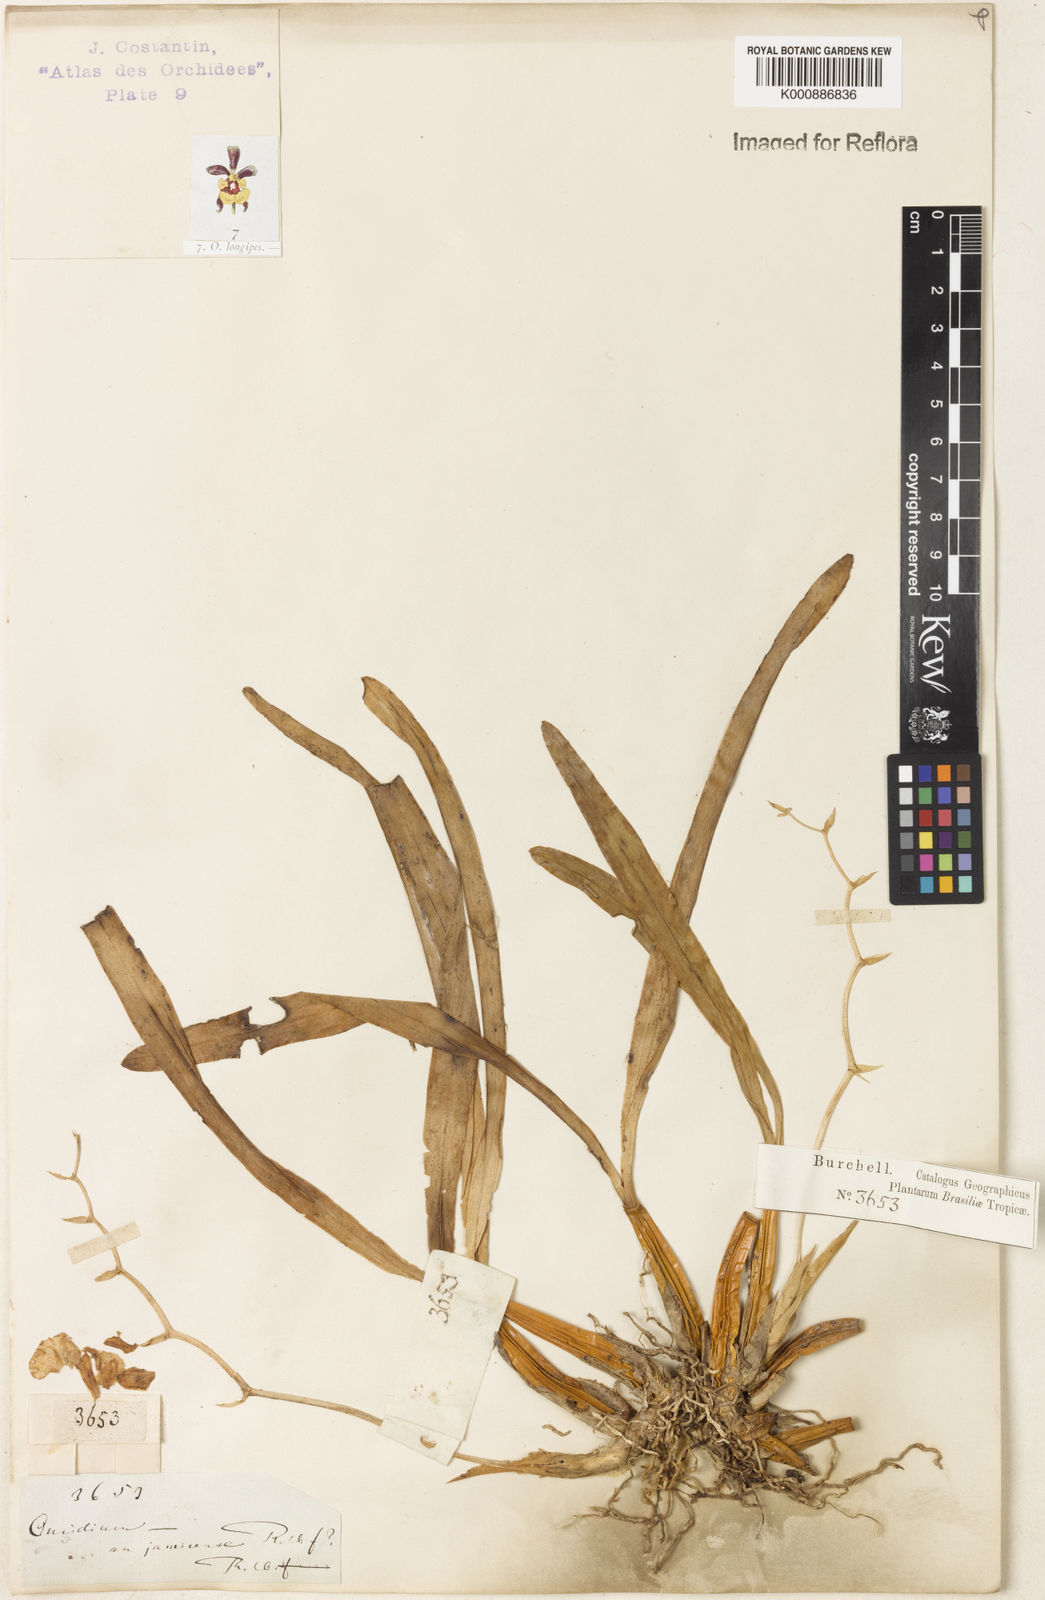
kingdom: Plantae
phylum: Tracheophyta
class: Liliopsida
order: Asparagales
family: Orchidaceae
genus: Gomesa
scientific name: Gomesa uniflora
